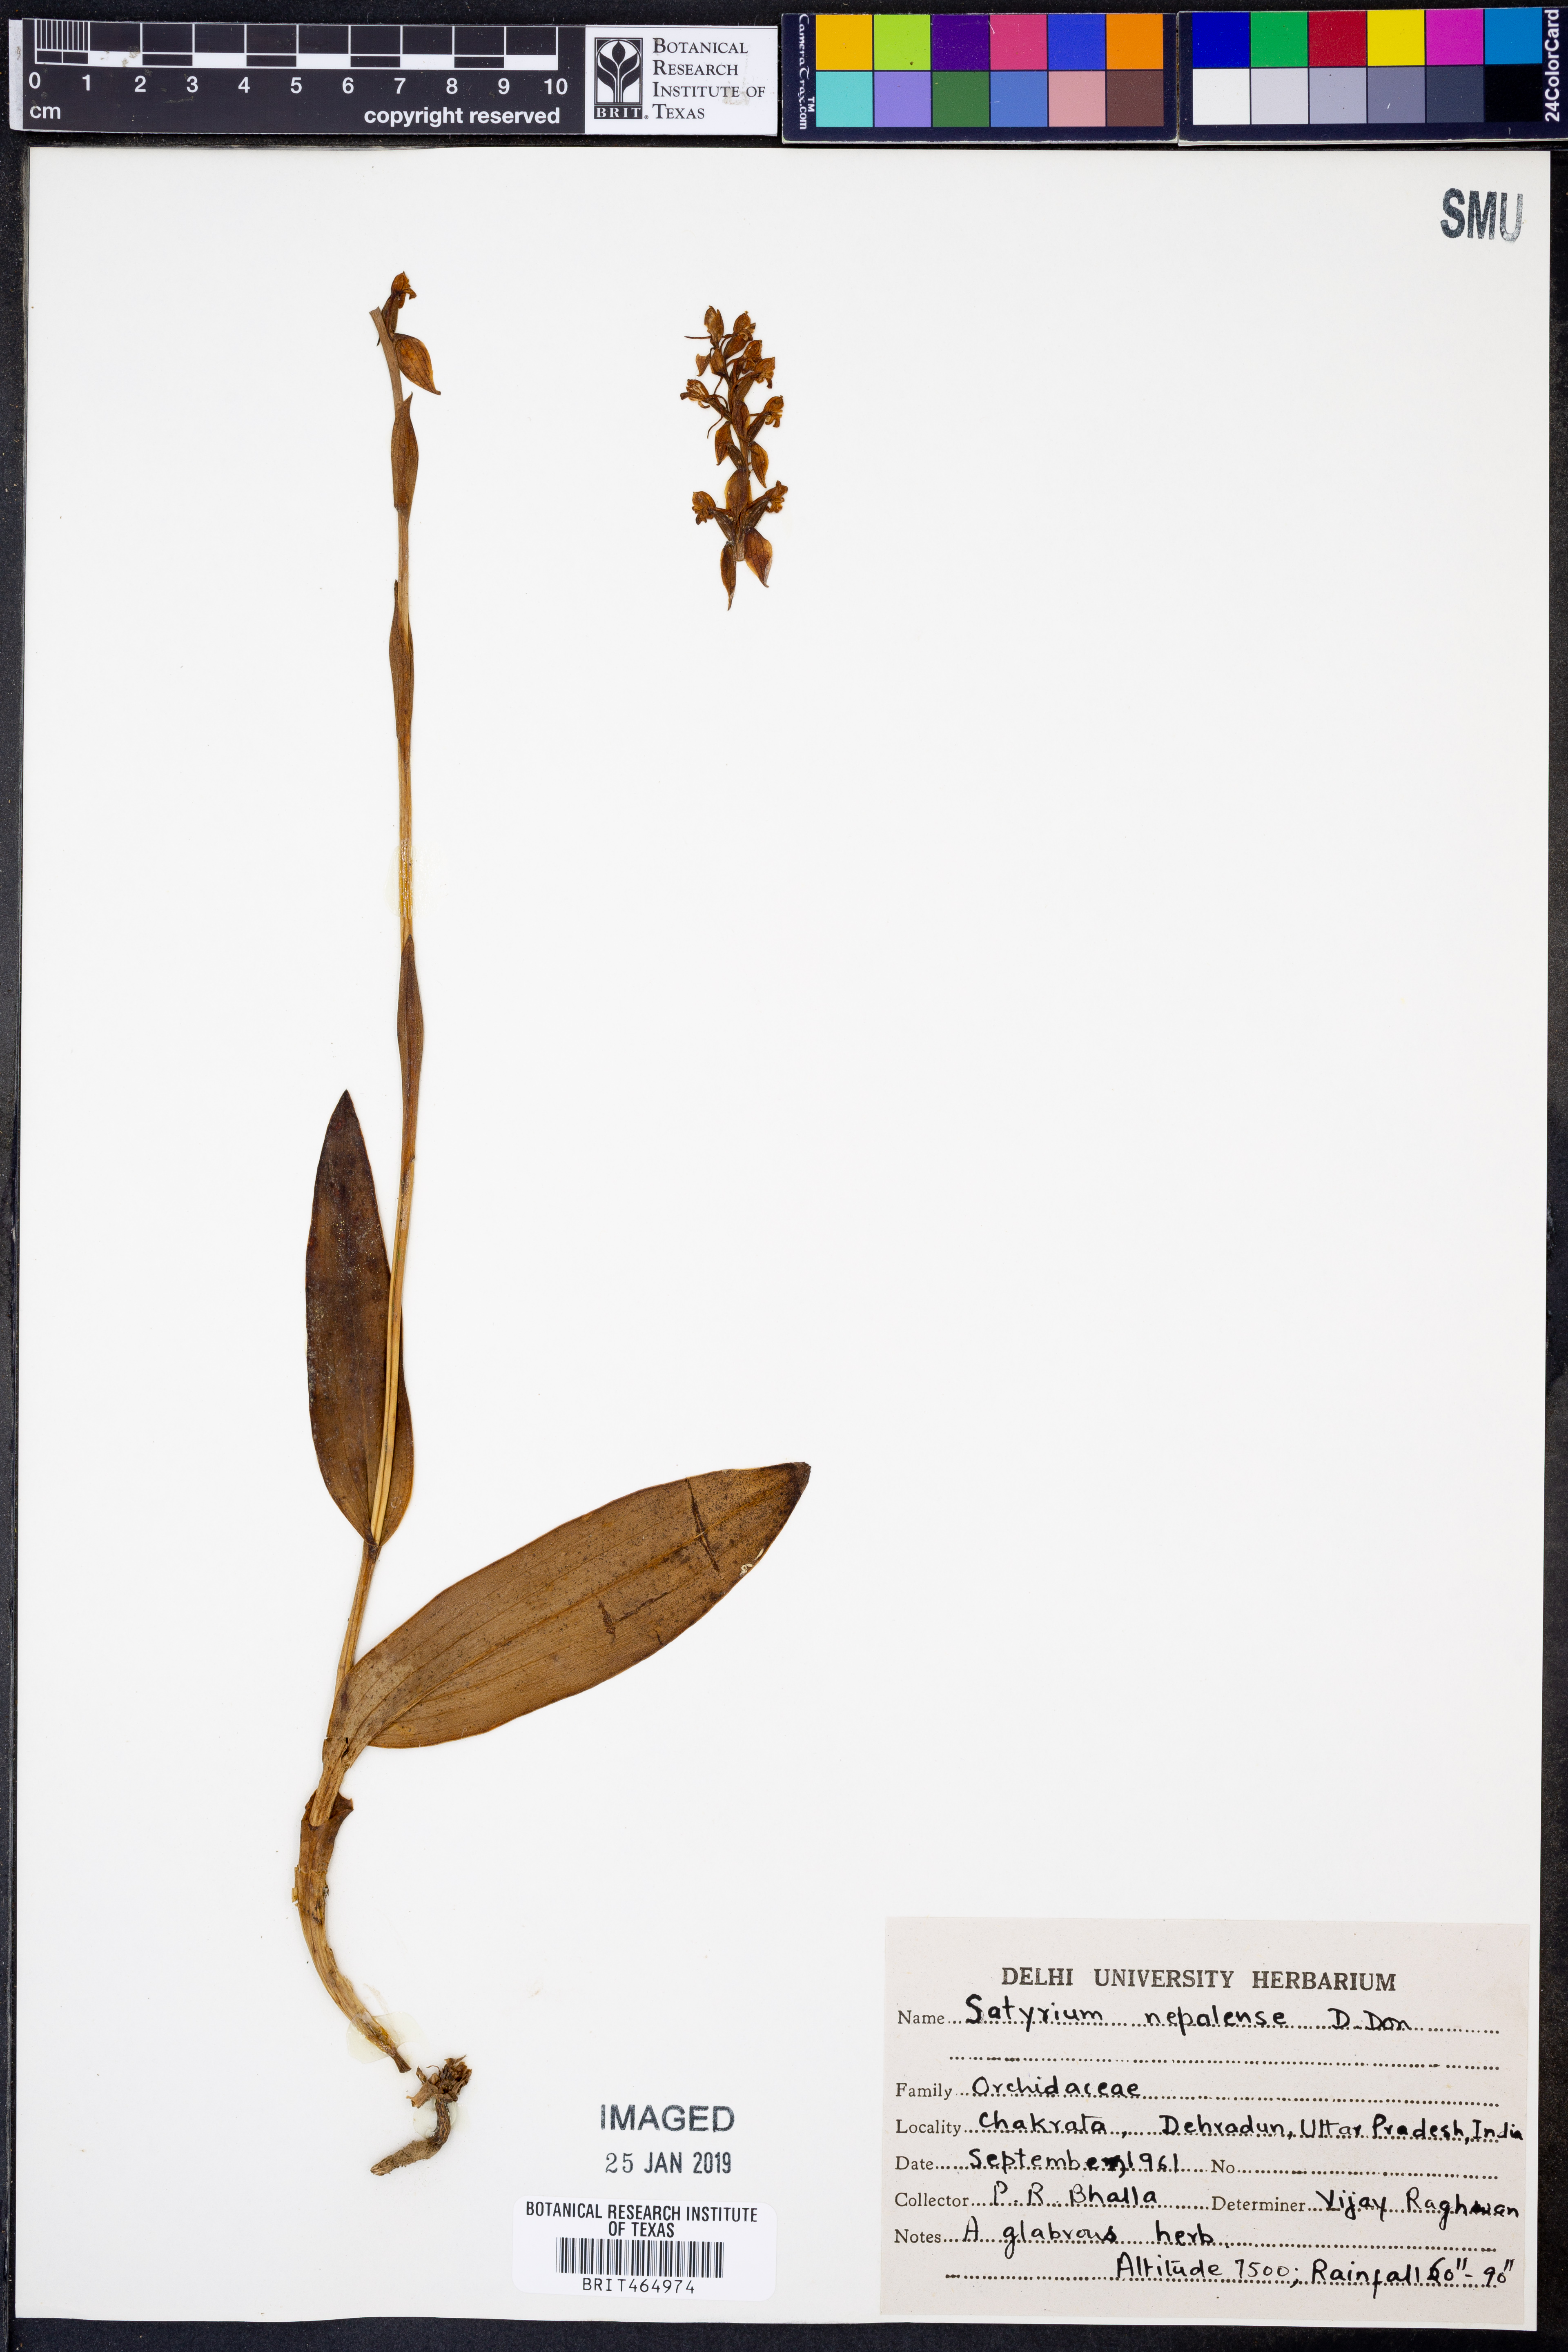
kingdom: Plantae
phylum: Tracheophyta
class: Liliopsida
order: Asparagales
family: Orchidaceae
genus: Satyrium
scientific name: Satyrium nepalense
